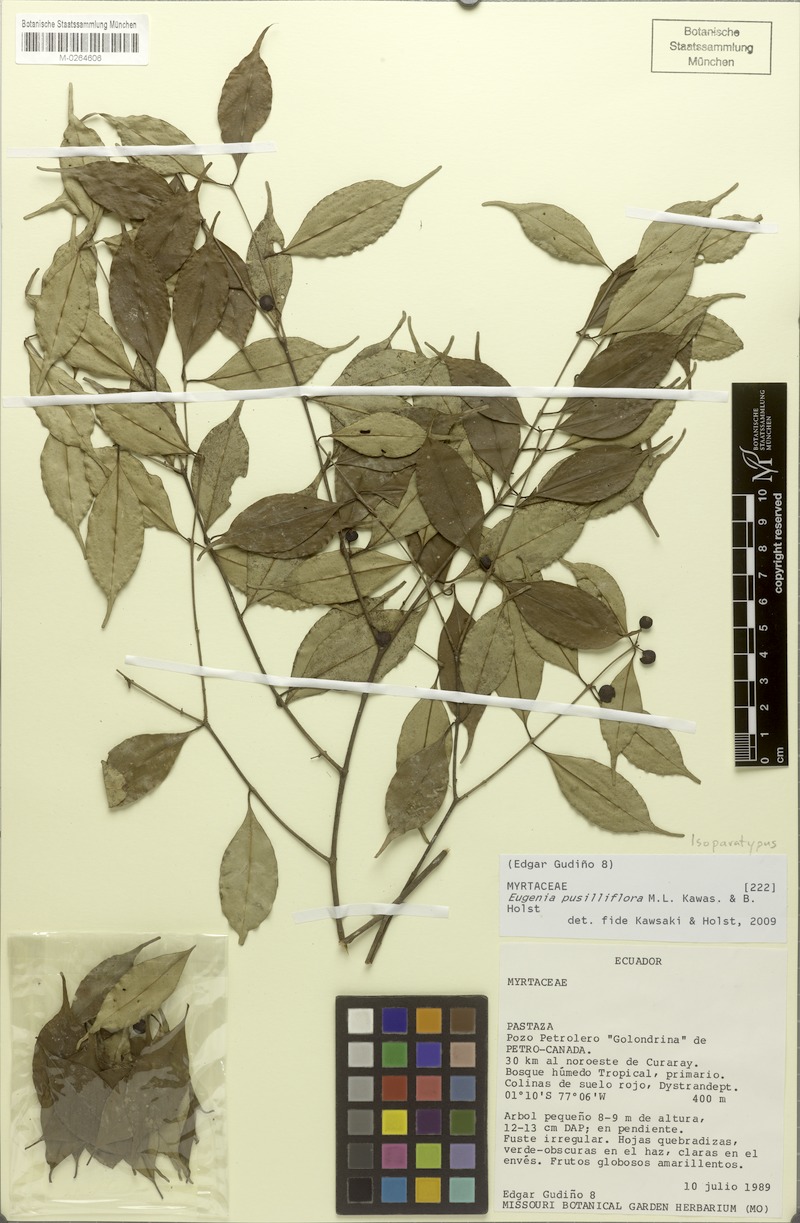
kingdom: Plantae
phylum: Tracheophyta
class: Magnoliopsida
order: Myrtales
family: Myrtaceae
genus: Eugenia
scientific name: Eugenia pusilliflora
